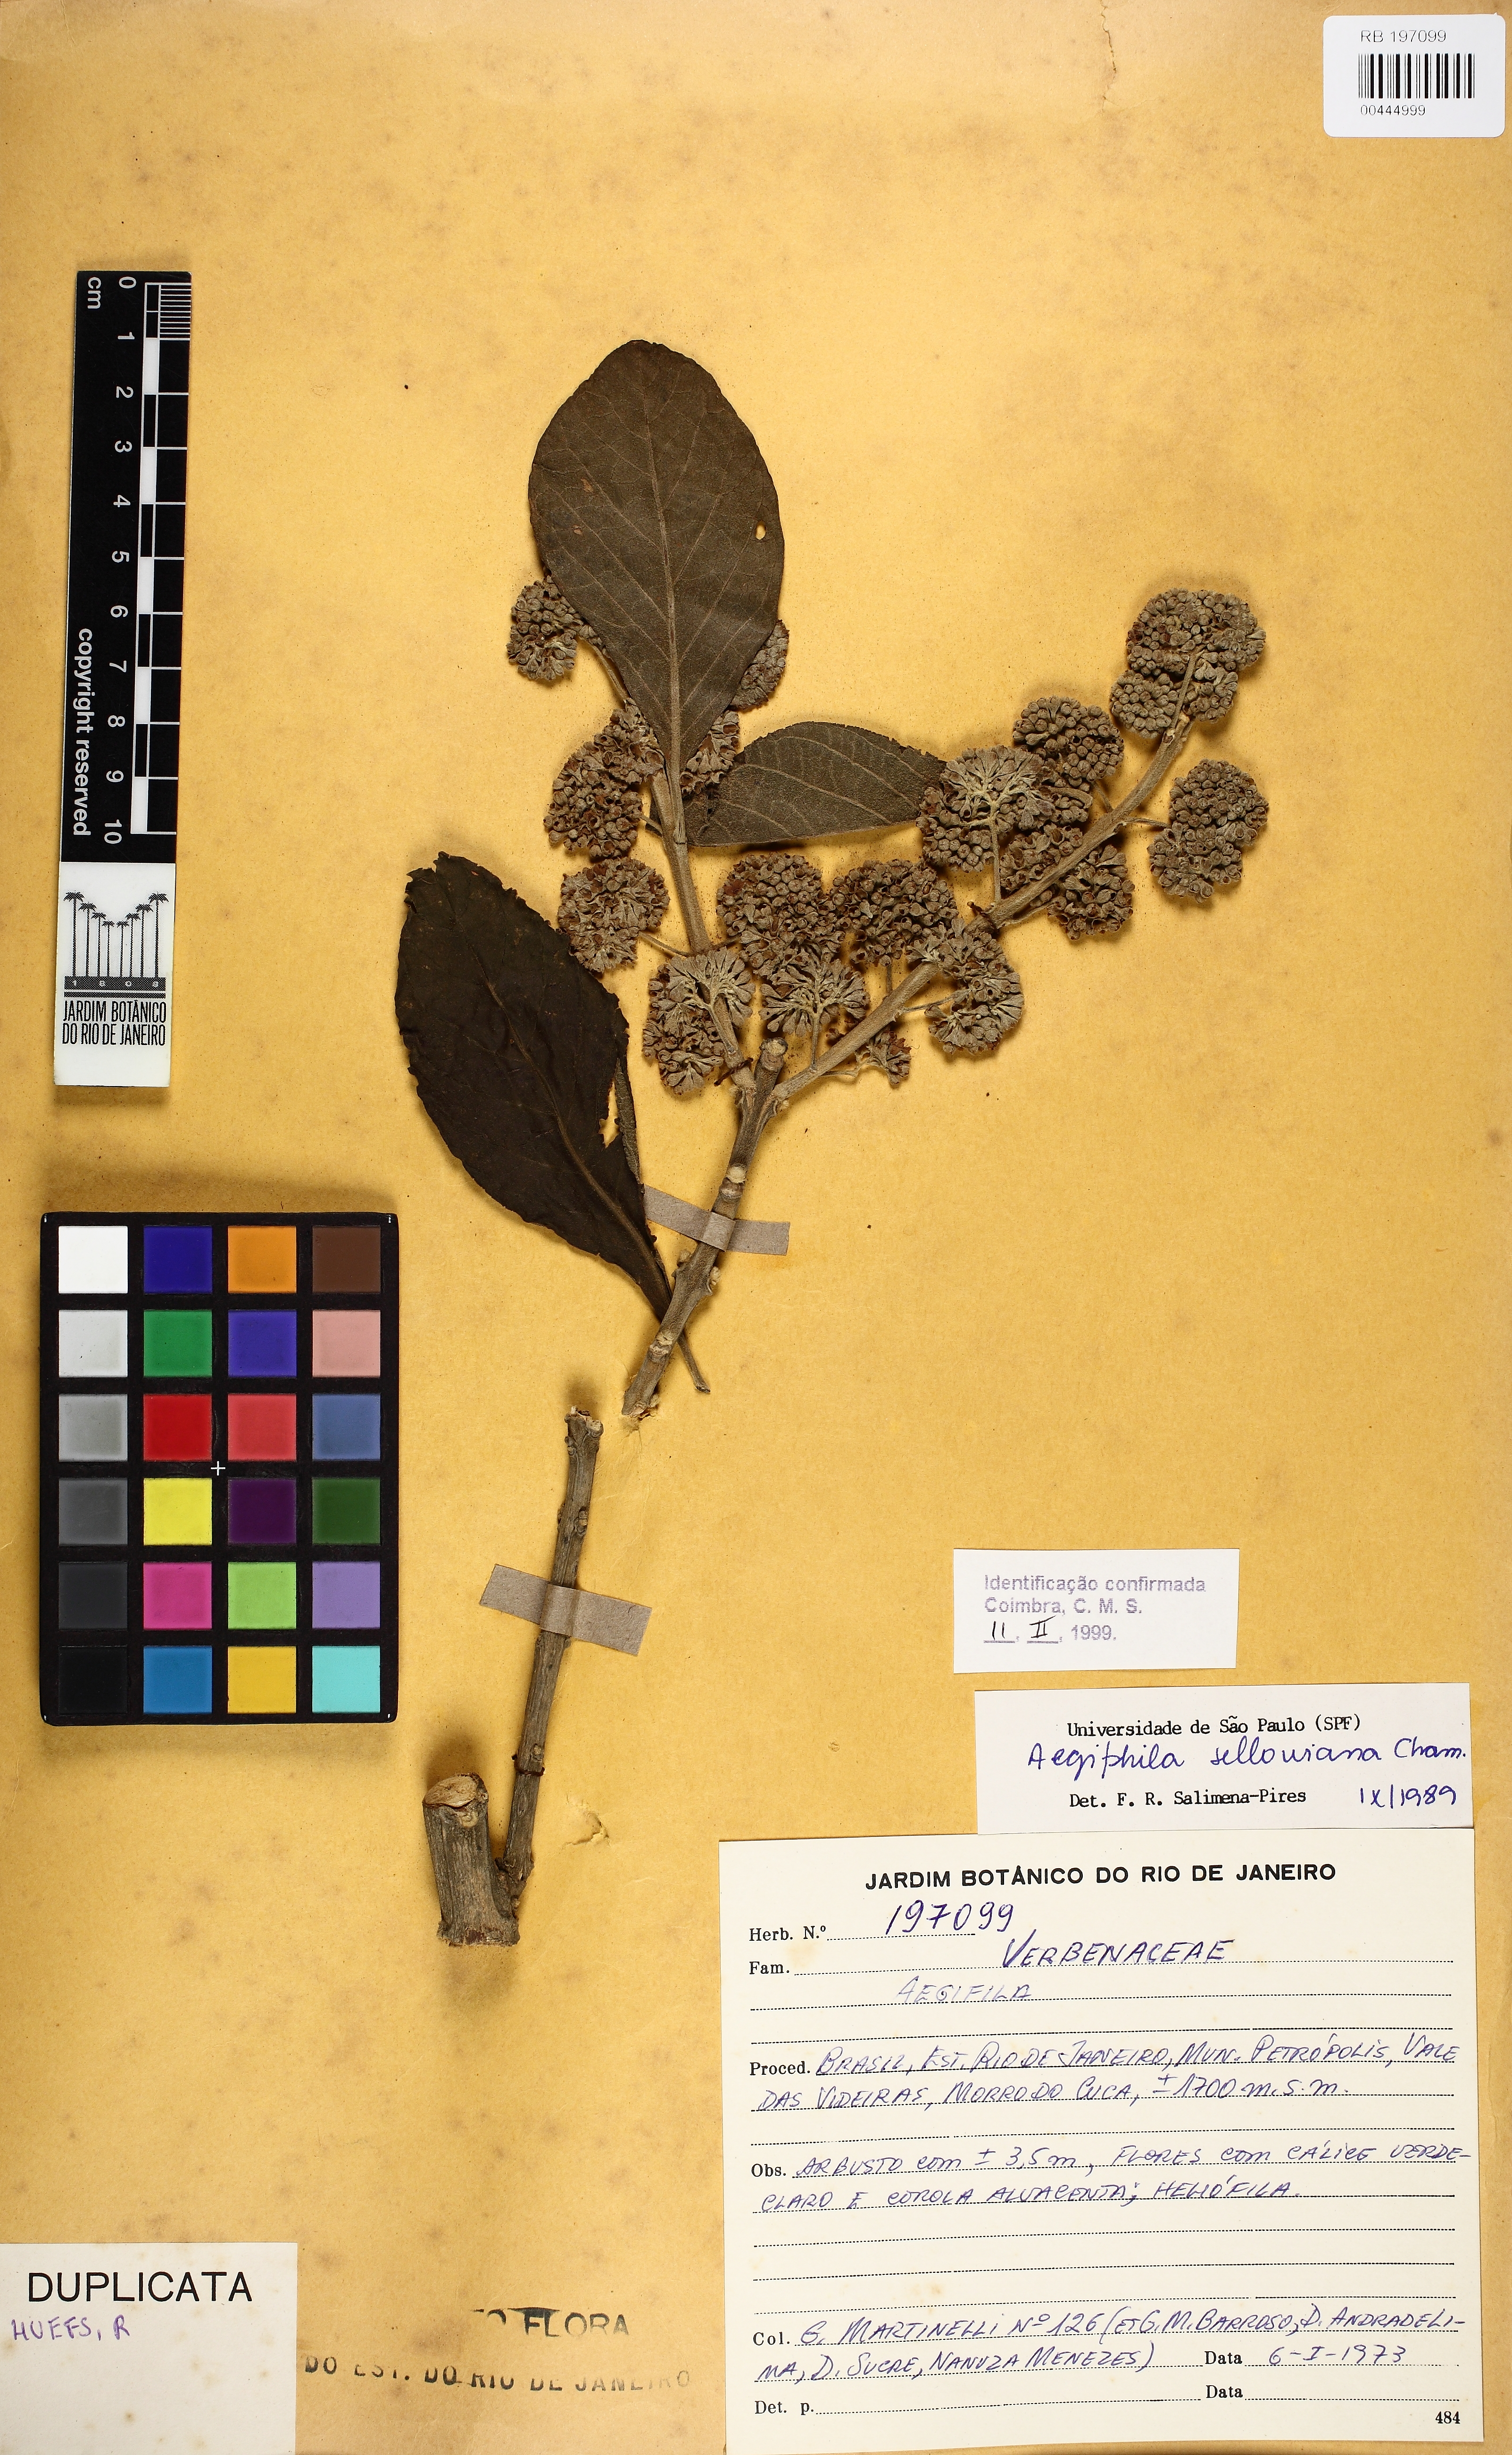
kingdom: Plantae
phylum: Tracheophyta
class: Magnoliopsida
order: Lamiales
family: Lamiaceae
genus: Aegiphila
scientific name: Aegiphila verticillata
